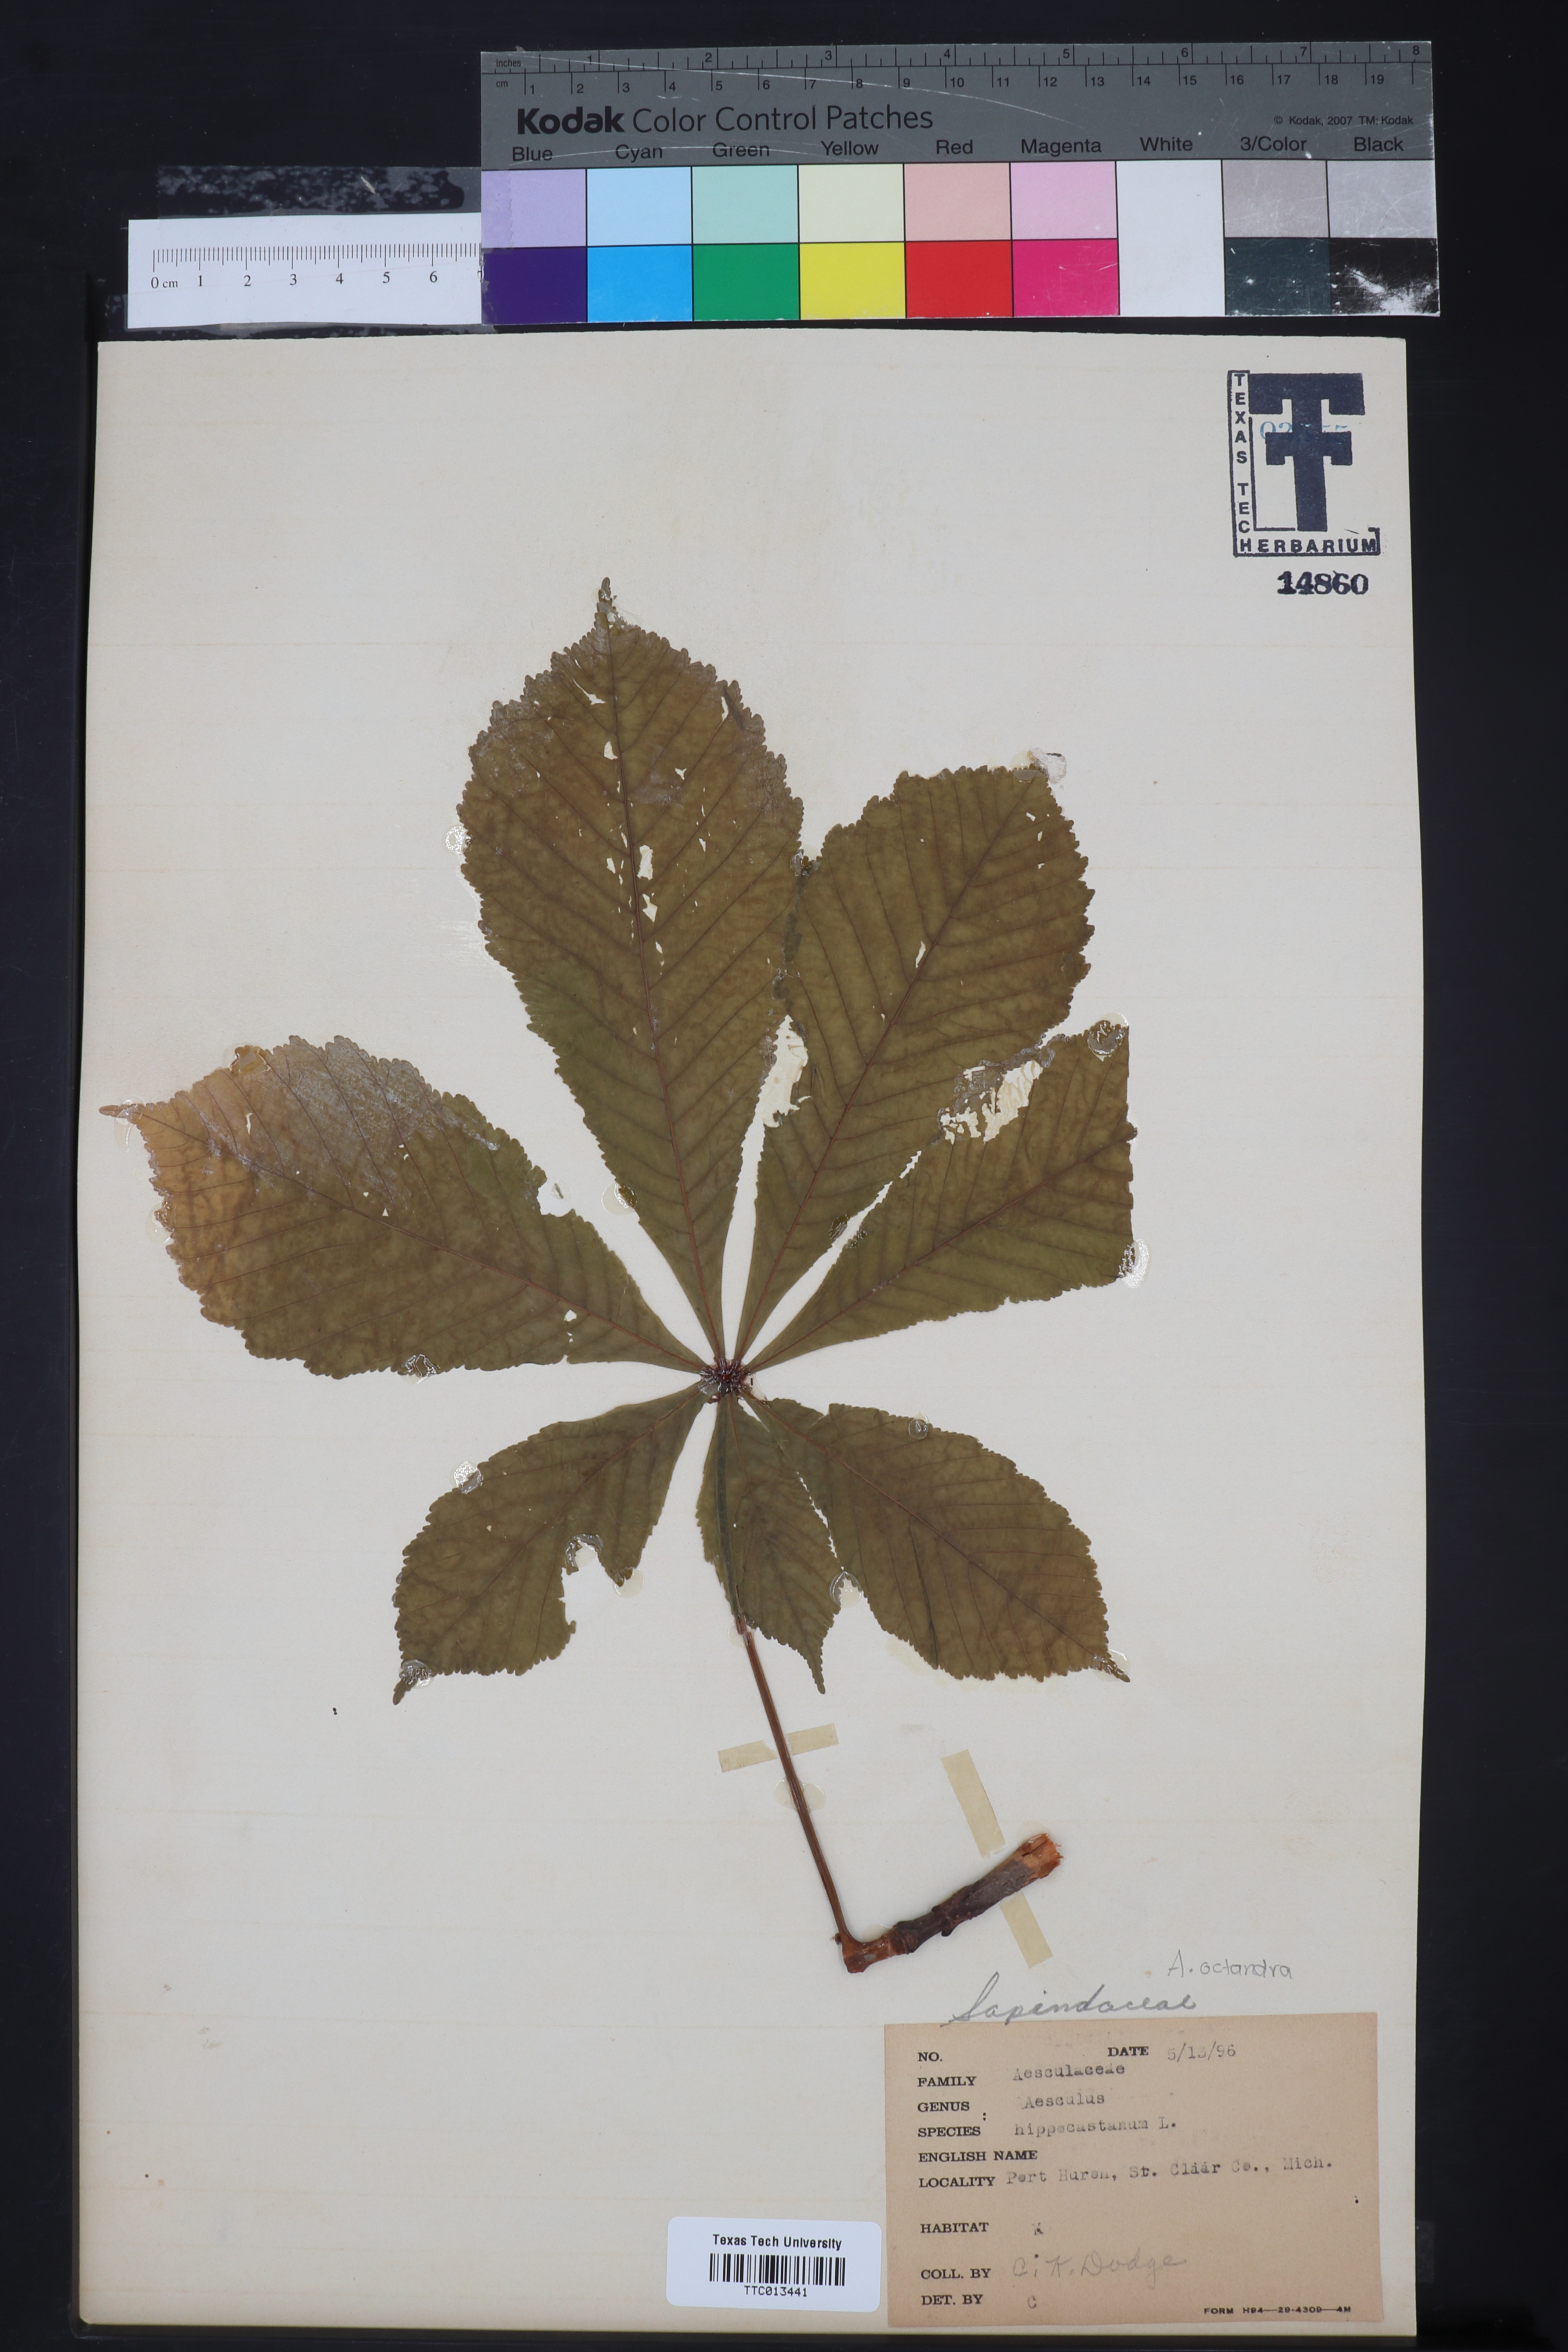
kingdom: Plantae
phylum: Tracheophyta
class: Magnoliopsida
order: Sapindales
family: Sapindaceae
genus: Aesculus
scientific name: Aesculus hippocastanum
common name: Horse-chestnut
